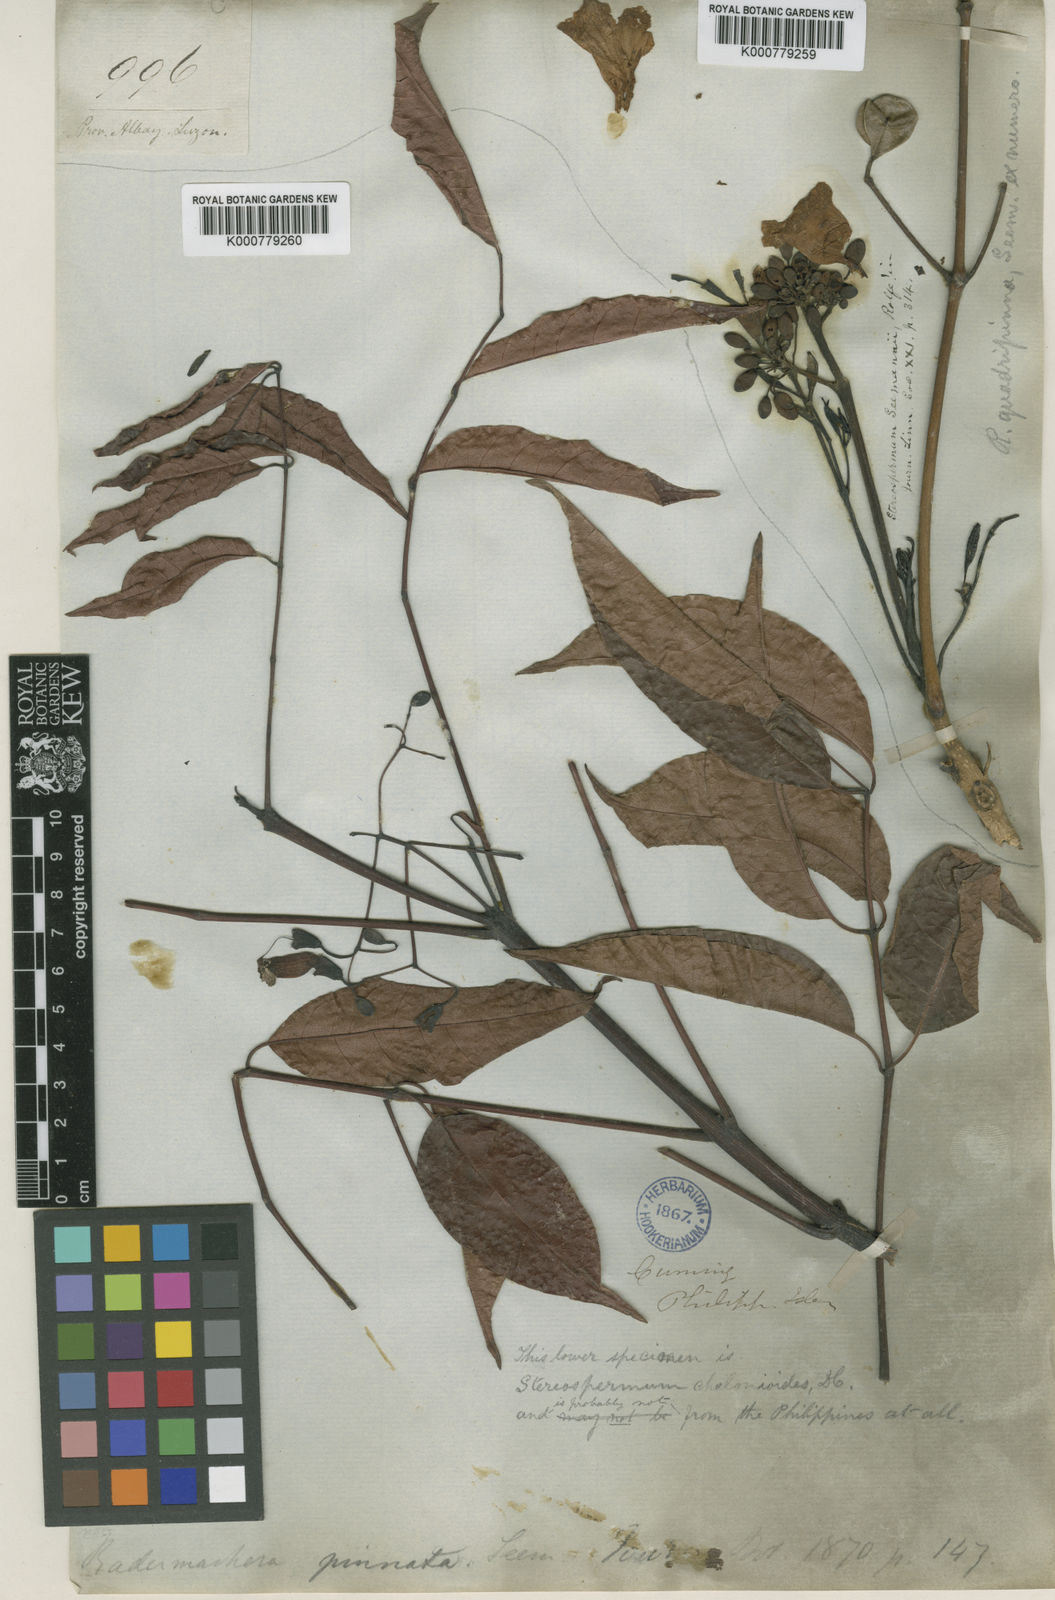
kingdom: Plantae
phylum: Tracheophyta
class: Magnoliopsida
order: Lamiales
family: Bignoniaceae
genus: Radermachera
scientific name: Radermachera
